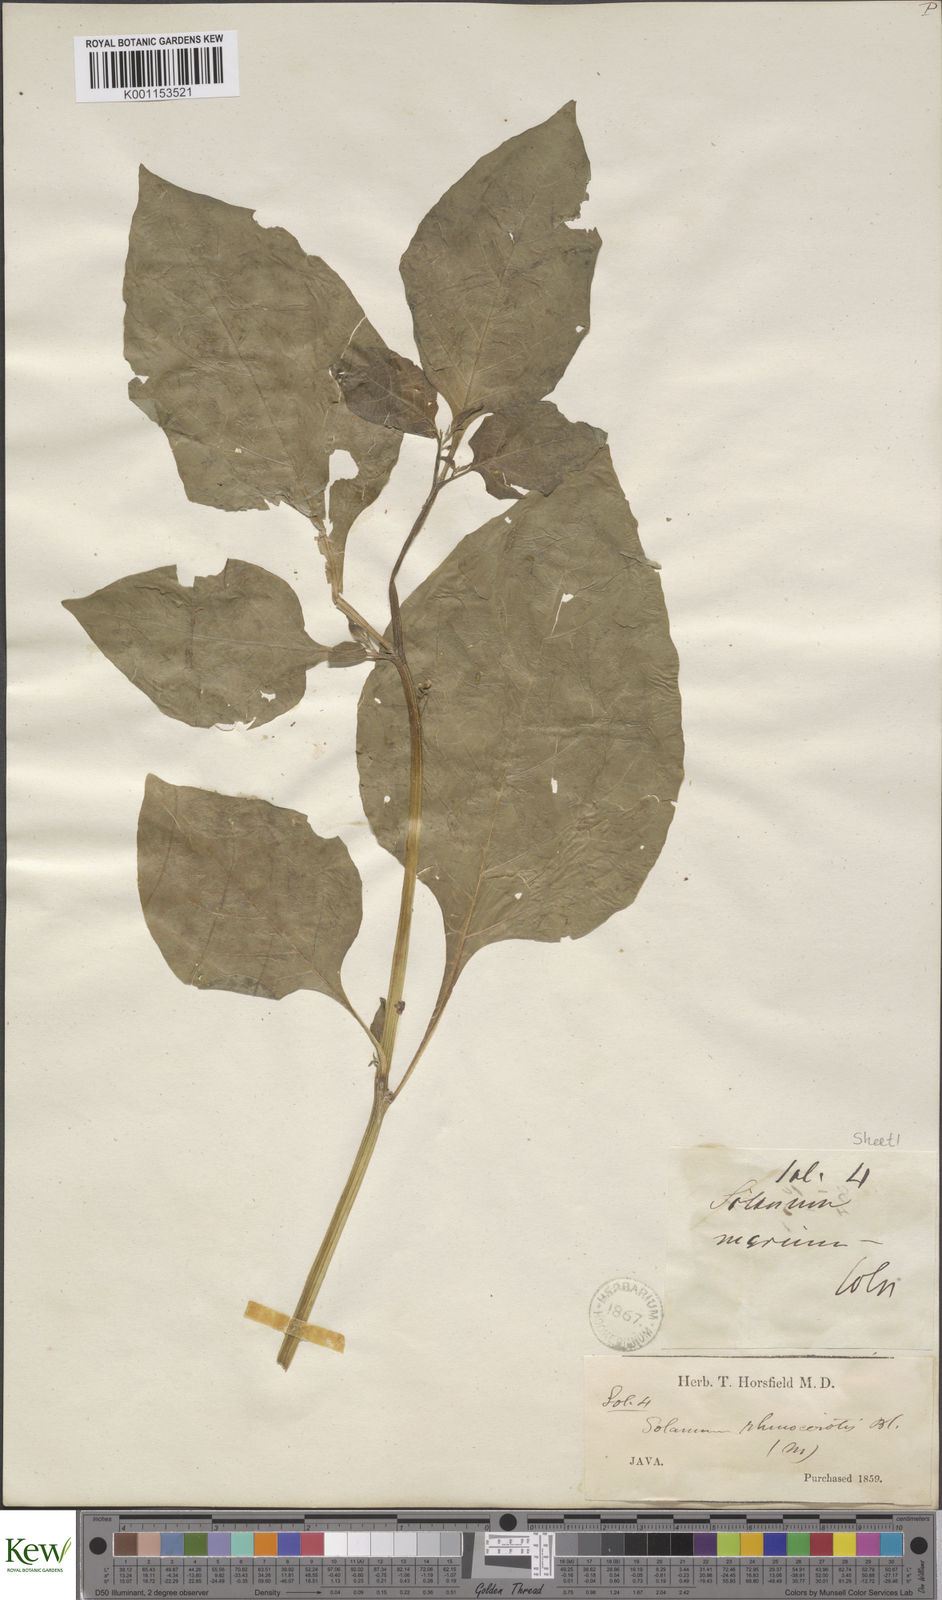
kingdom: Plantae
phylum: Tracheophyta
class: Magnoliopsida
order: Solanales
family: Solanaceae
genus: Solanum
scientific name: Solanum nigrum
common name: Black nightshade
